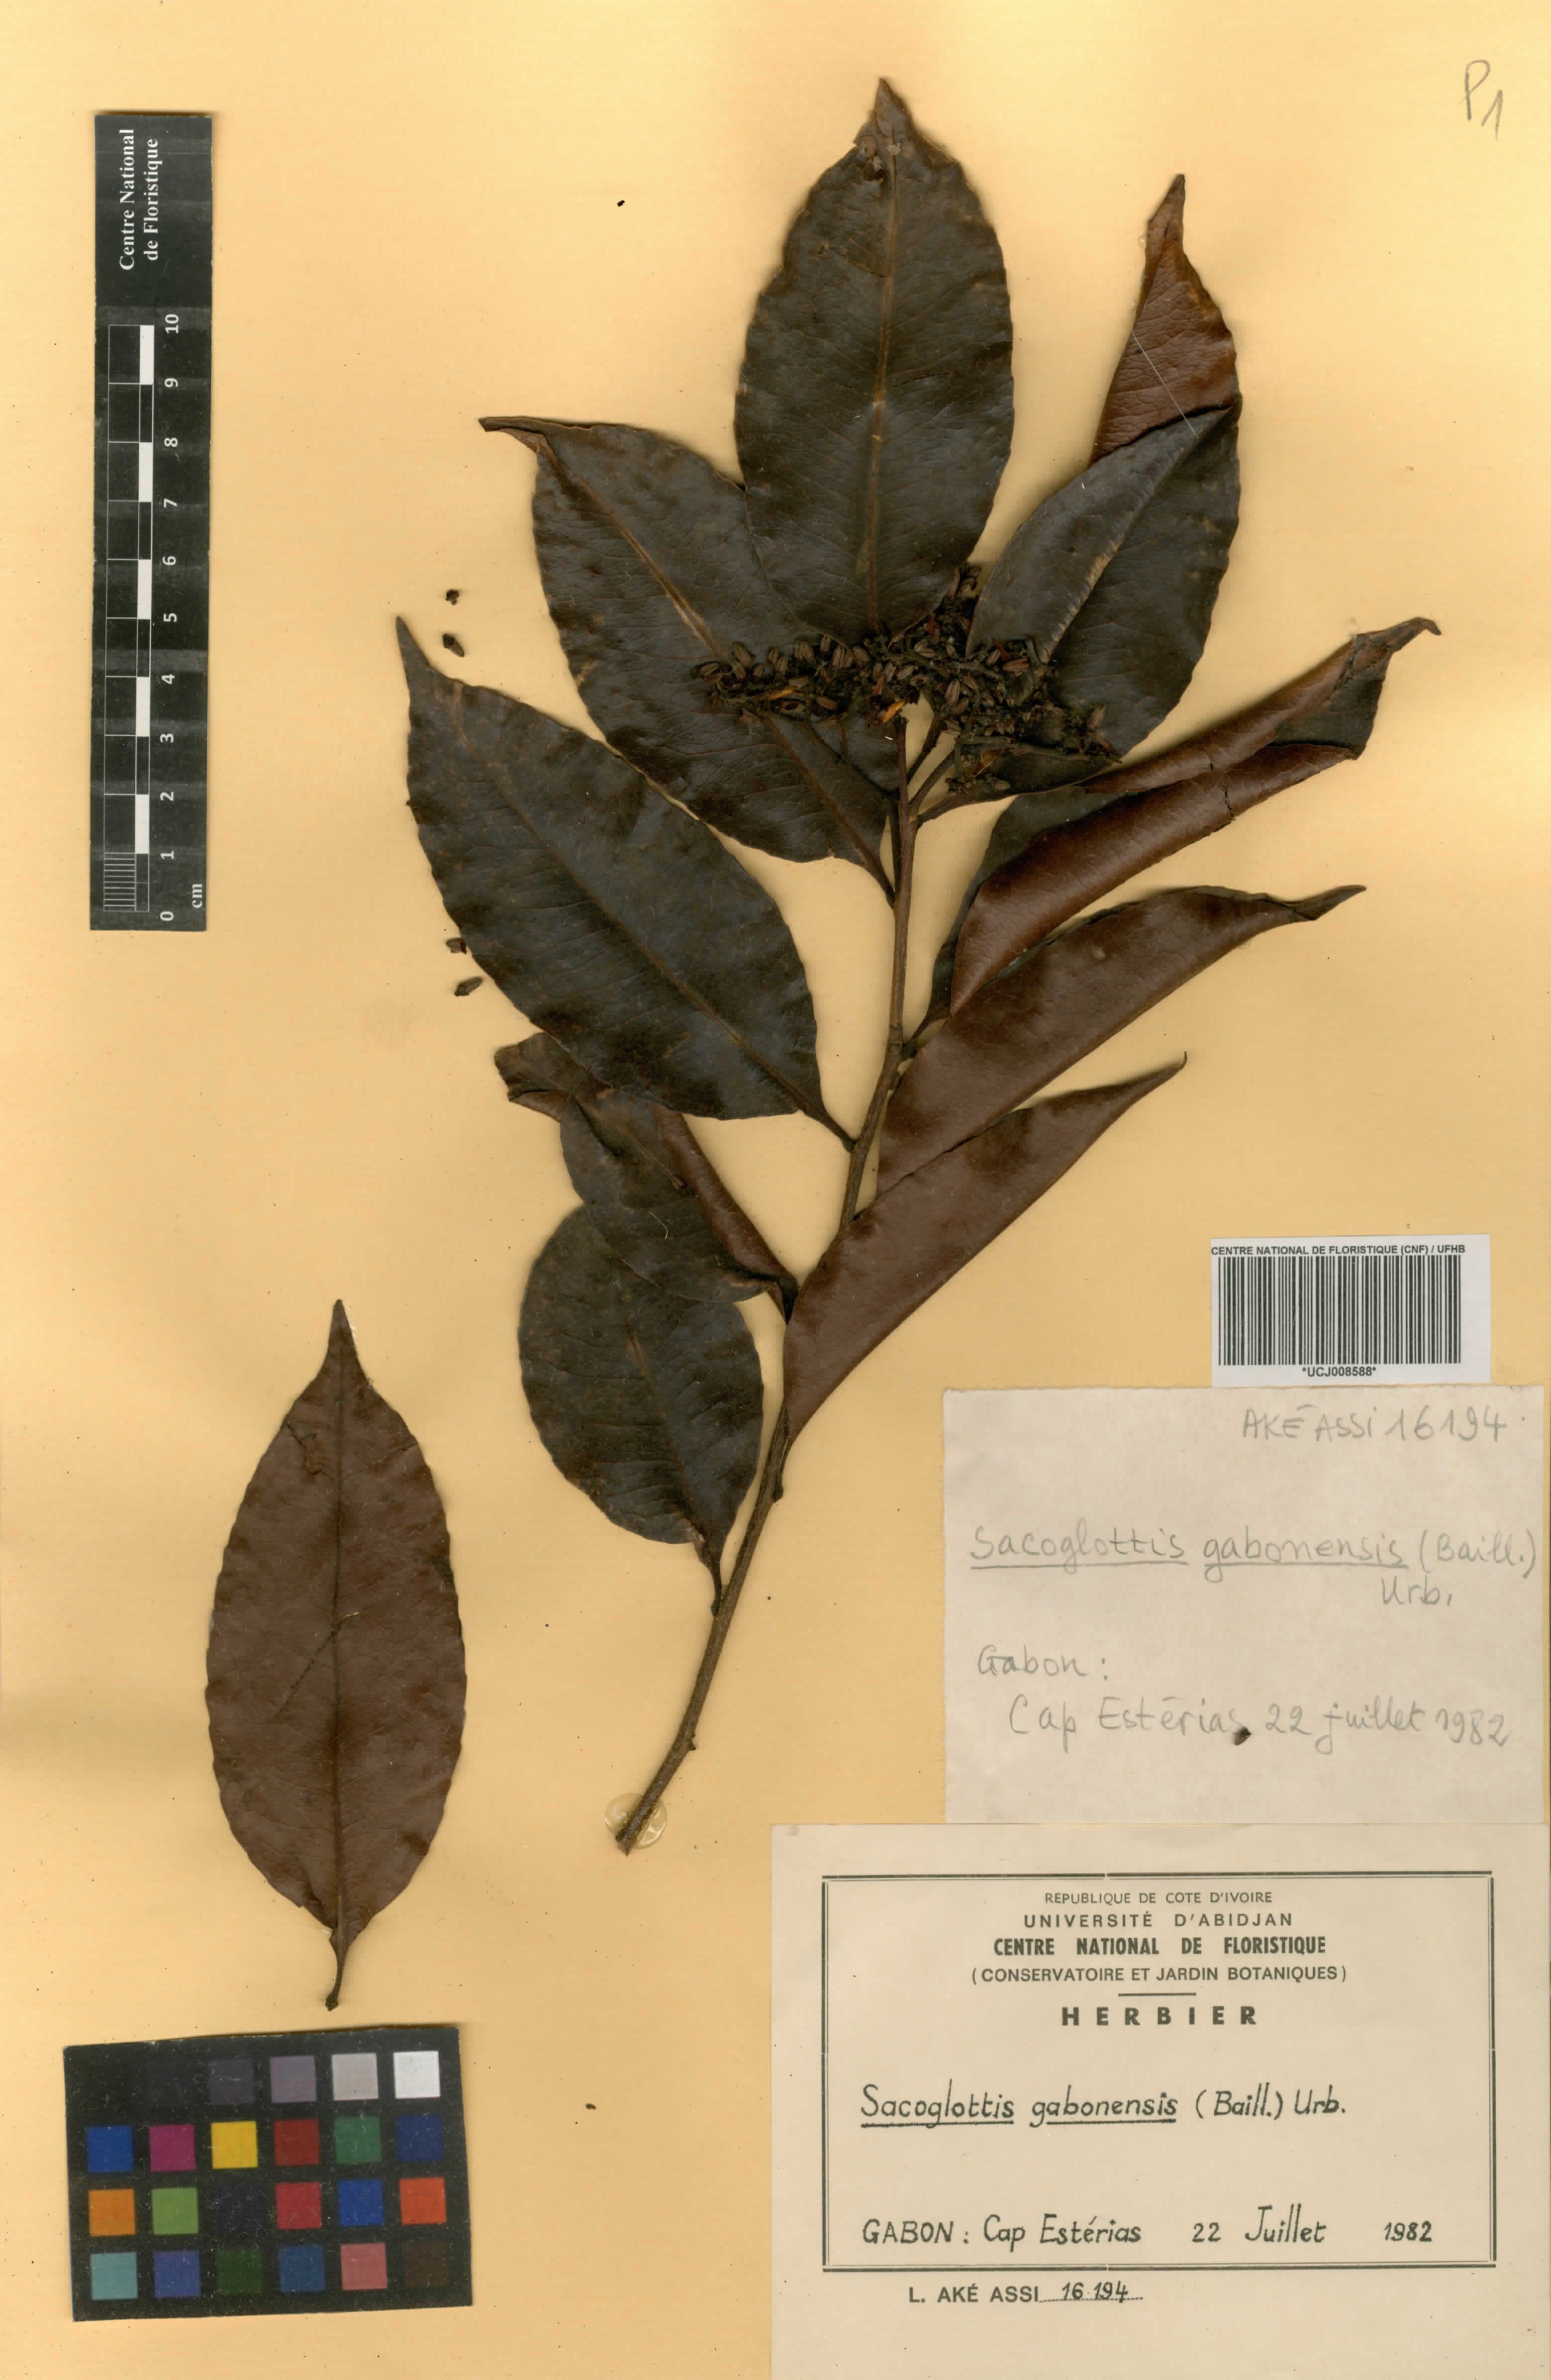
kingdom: Plantae
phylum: Tracheophyta
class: Magnoliopsida
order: Malpighiales
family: Humiriaceae
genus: Sacoglottis
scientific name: Sacoglottis gabonensis
